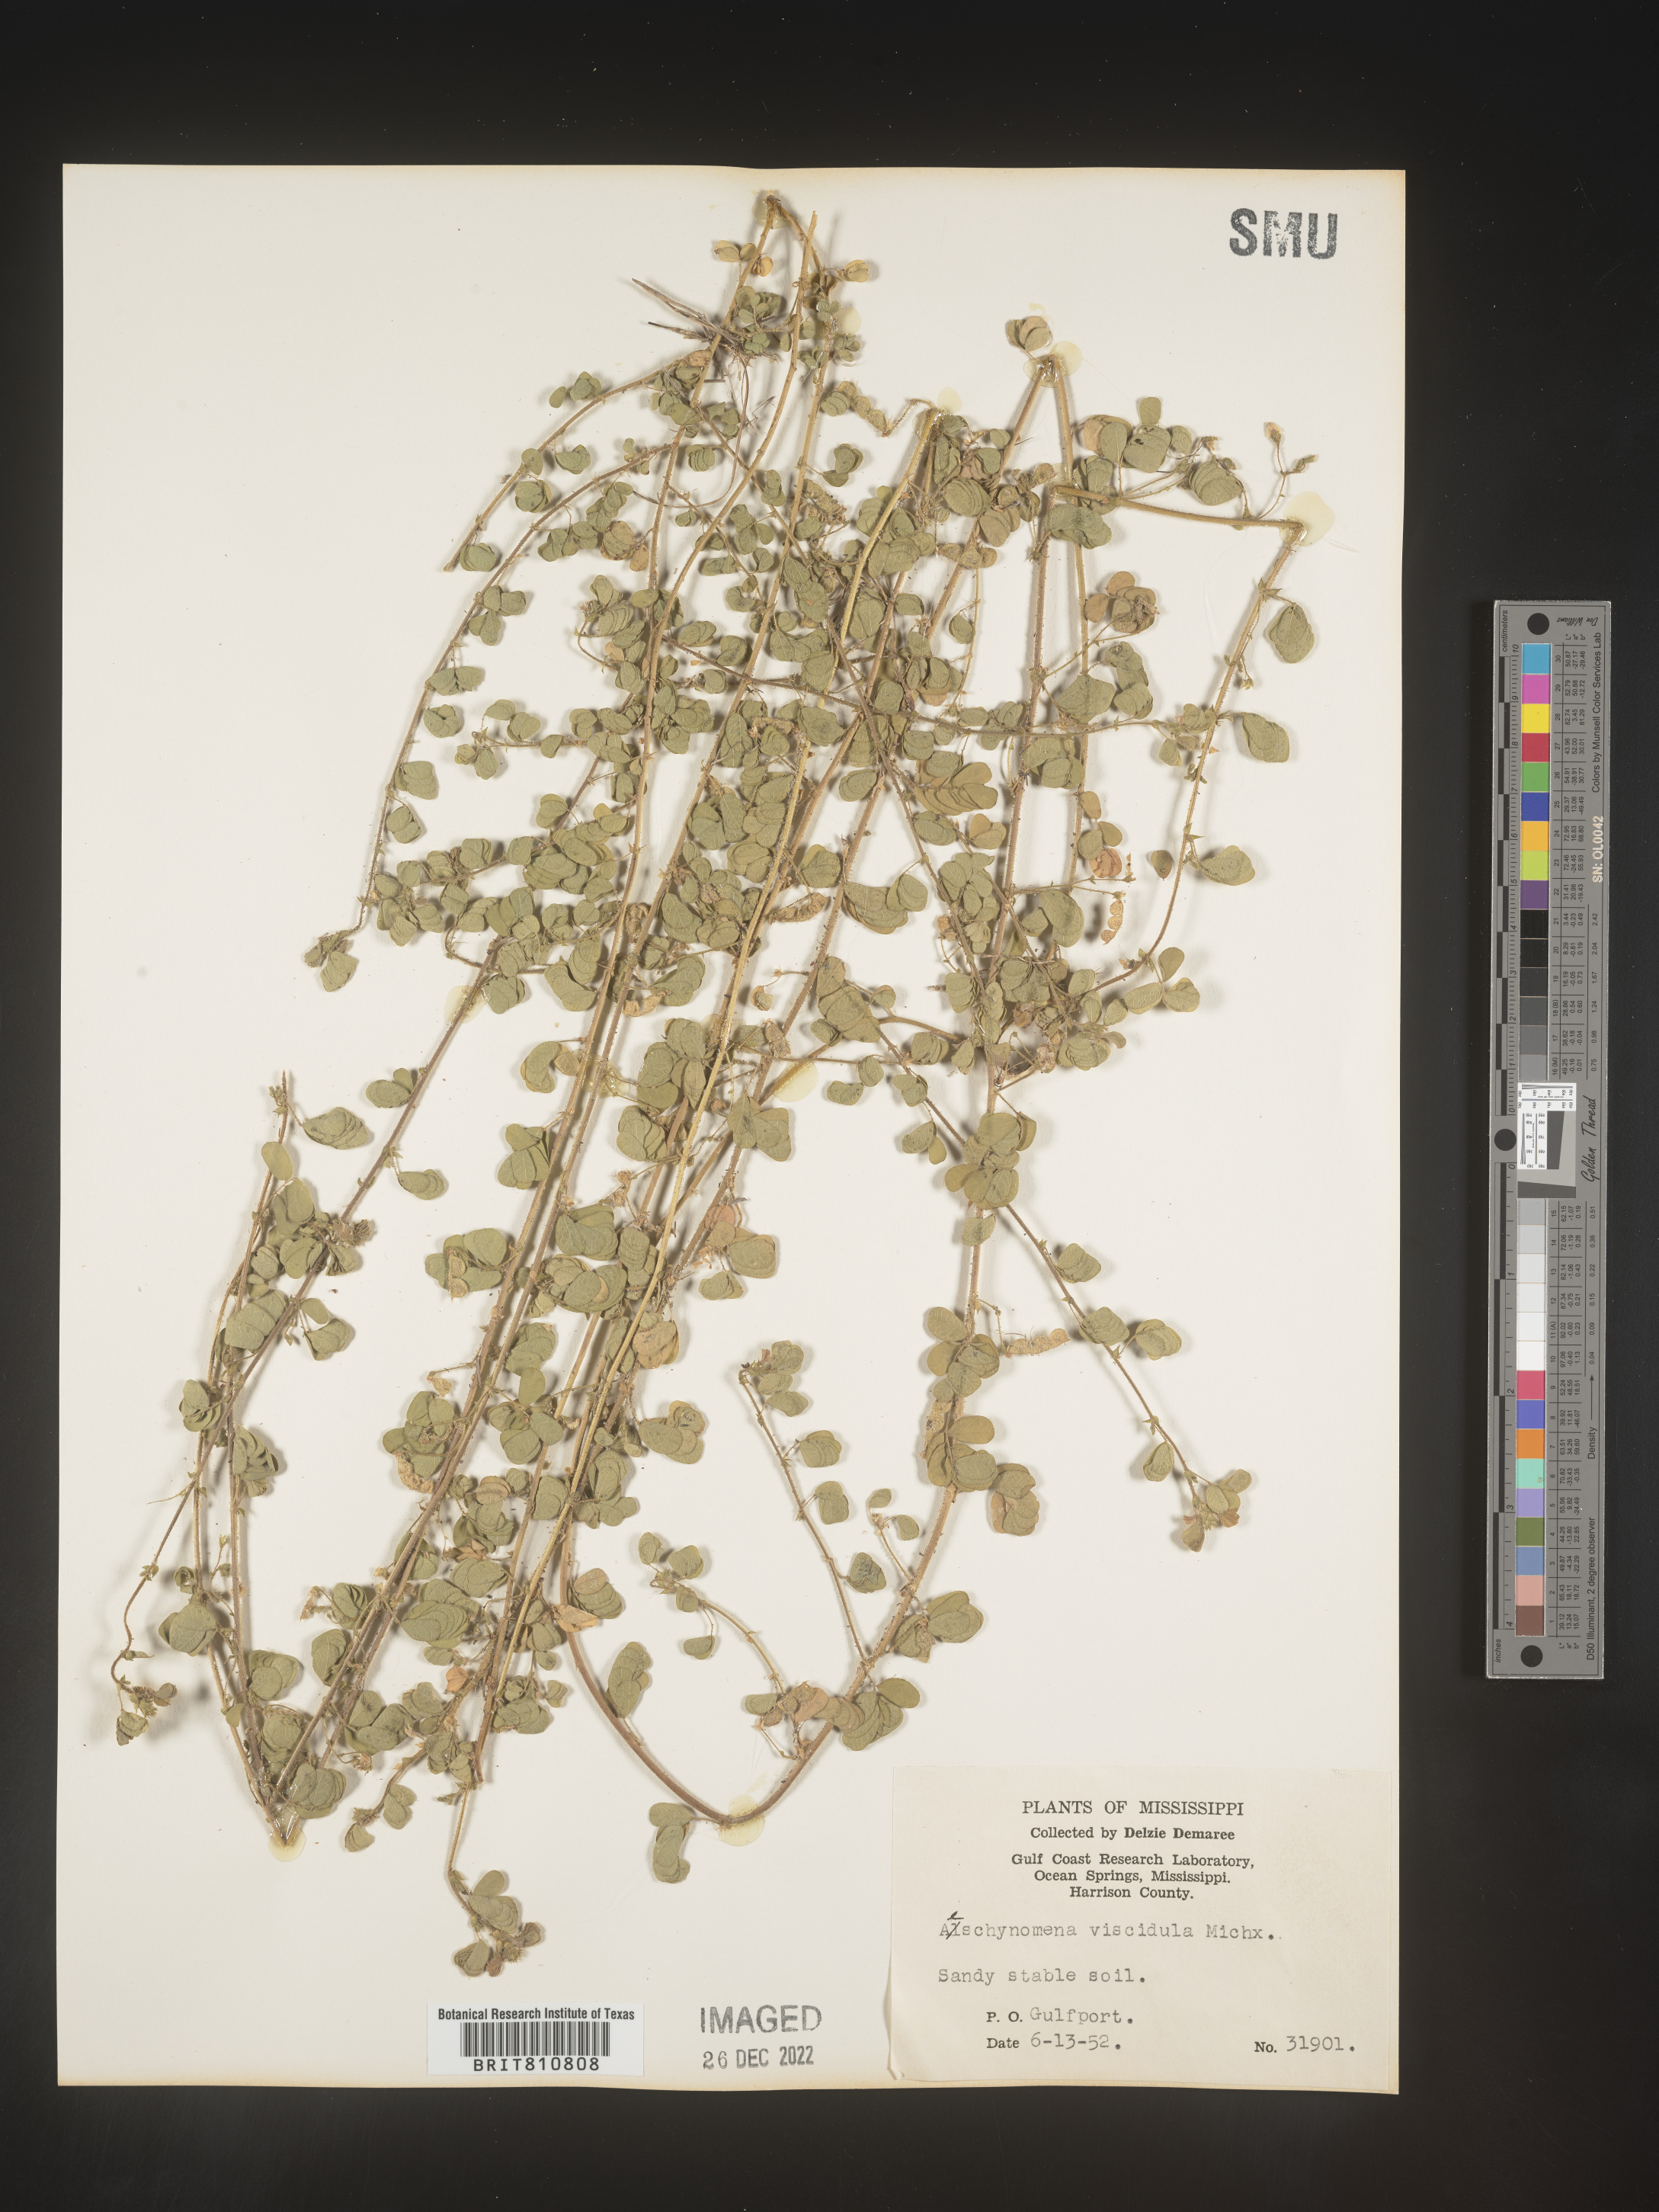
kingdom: Plantae
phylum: Tracheophyta
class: Magnoliopsida
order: Fabales
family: Fabaceae
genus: Aeschynomene
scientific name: Aeschynomene indica
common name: Indian jointvetch
